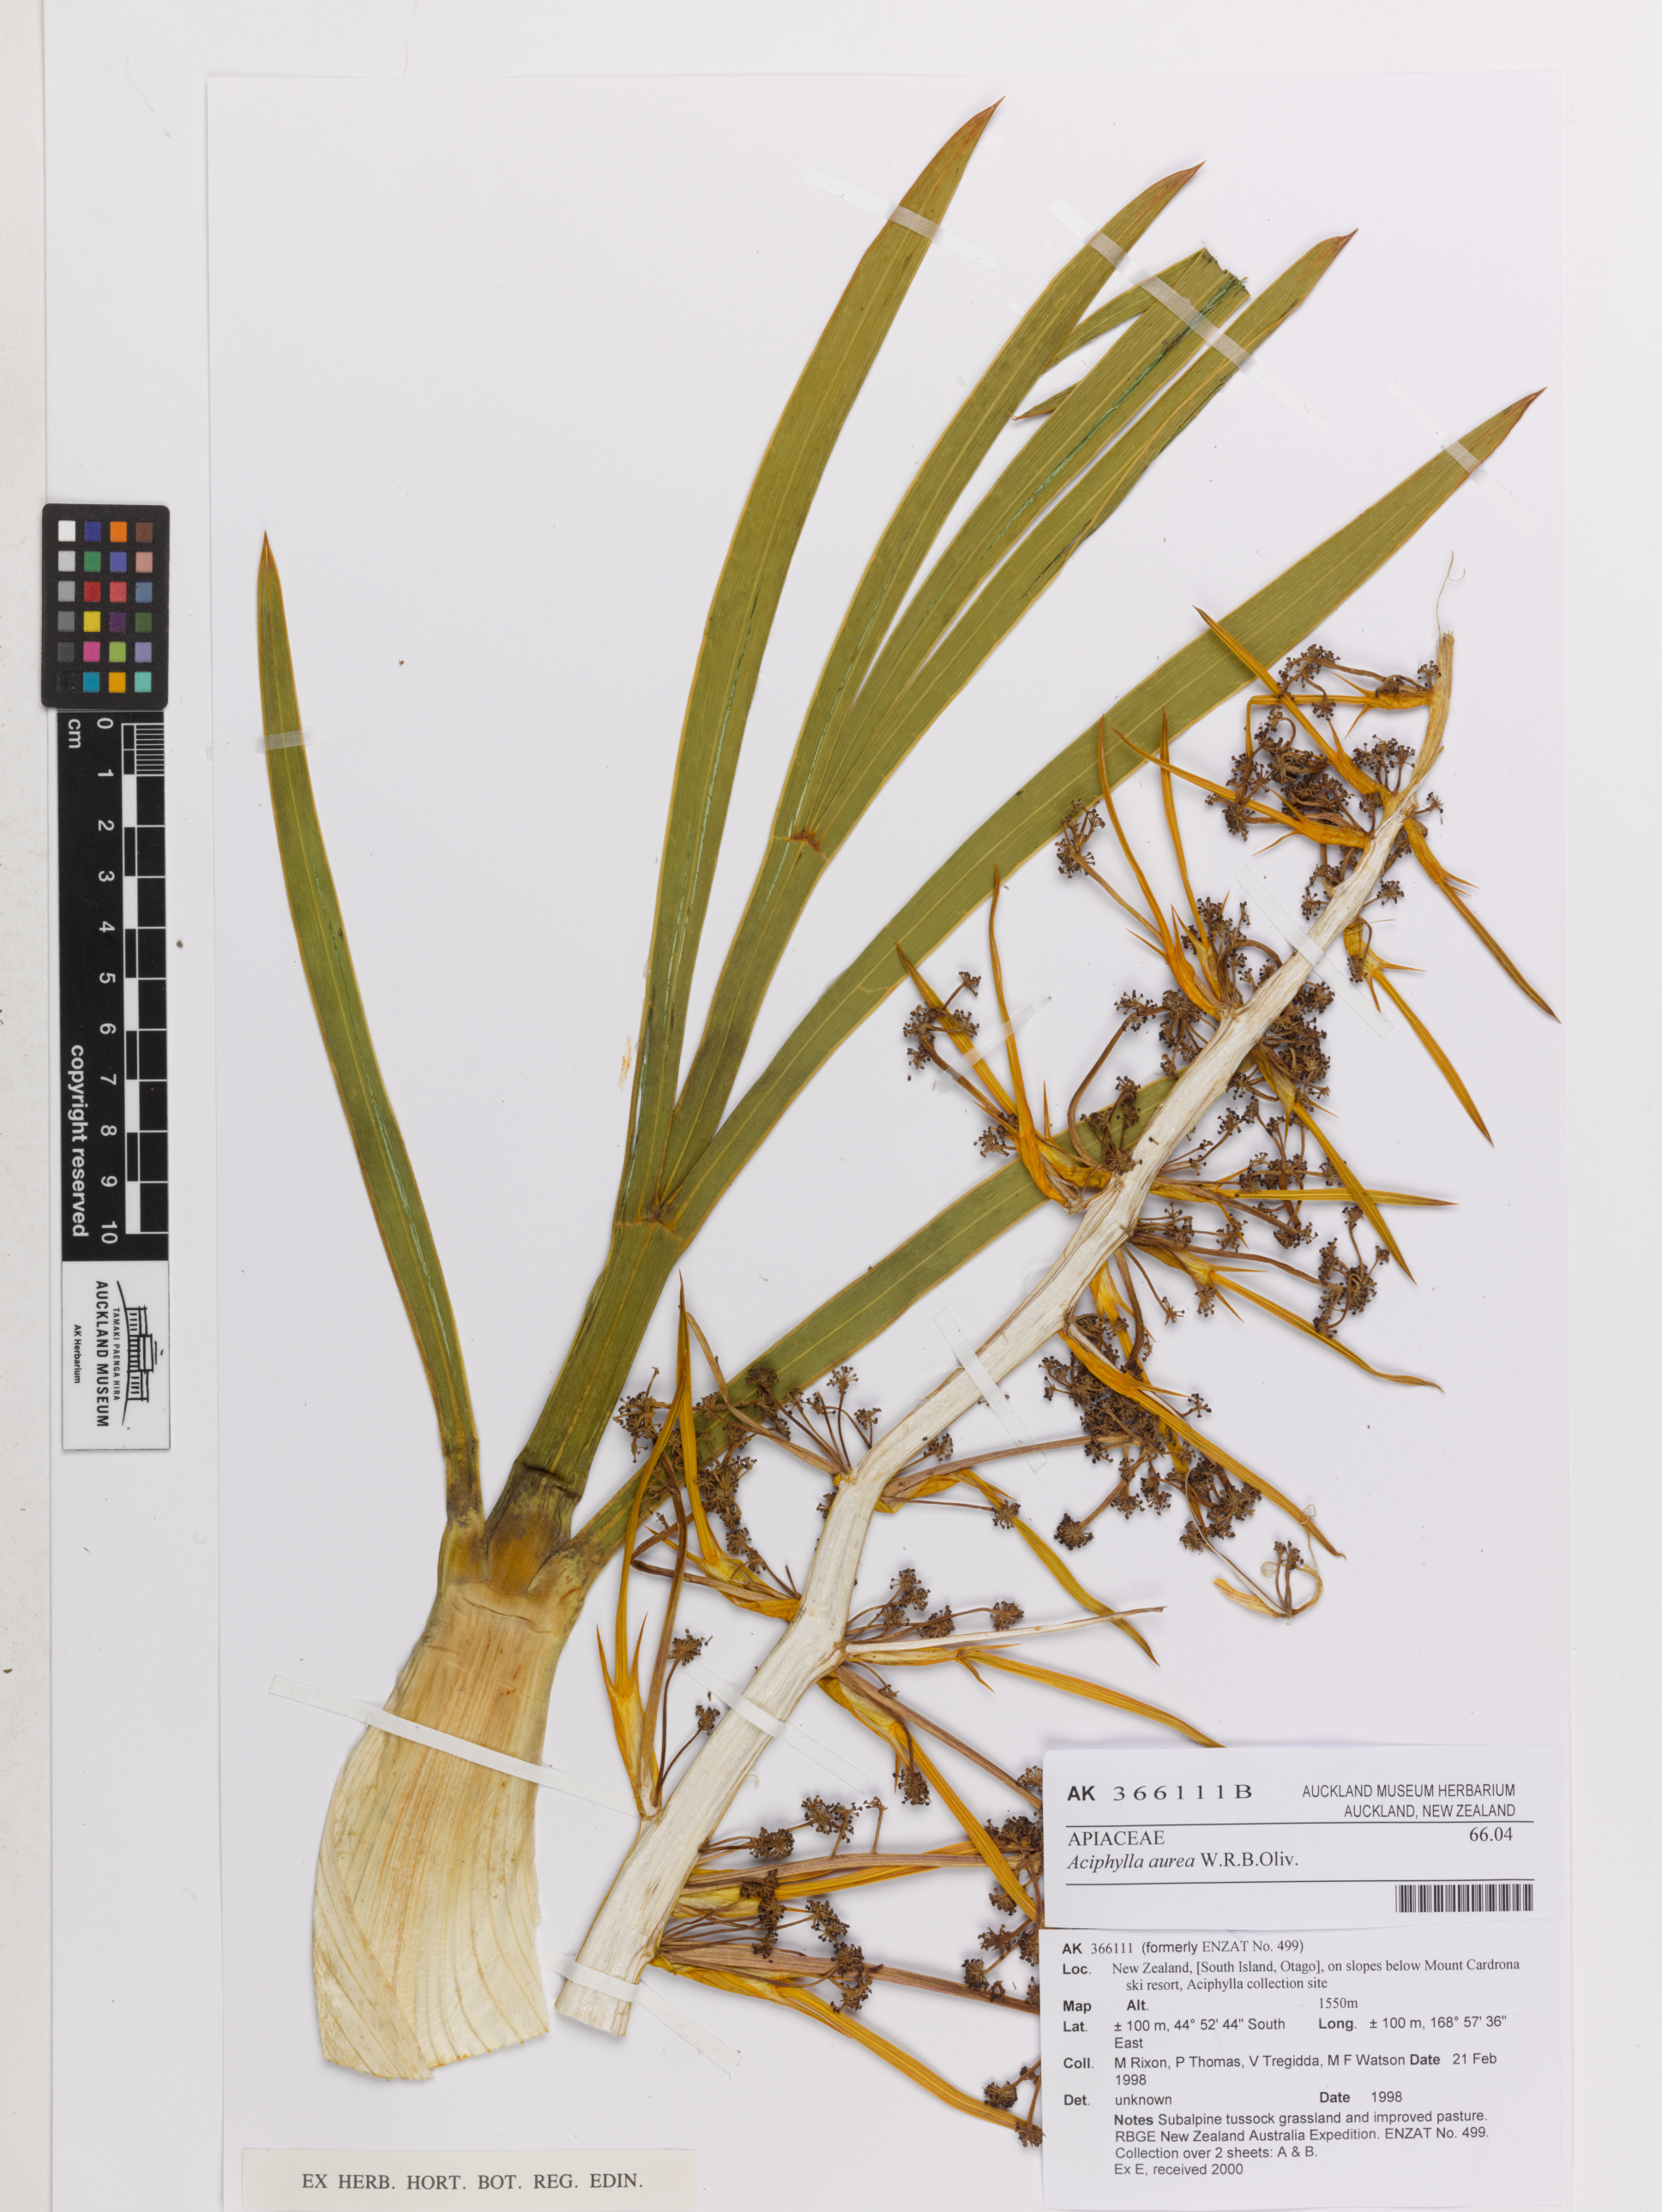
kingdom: Plantae
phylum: Tracheophyta
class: Magnoliopsida
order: Apiales
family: Apiaceae
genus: Aciphylla
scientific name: Aciphylla aurea
